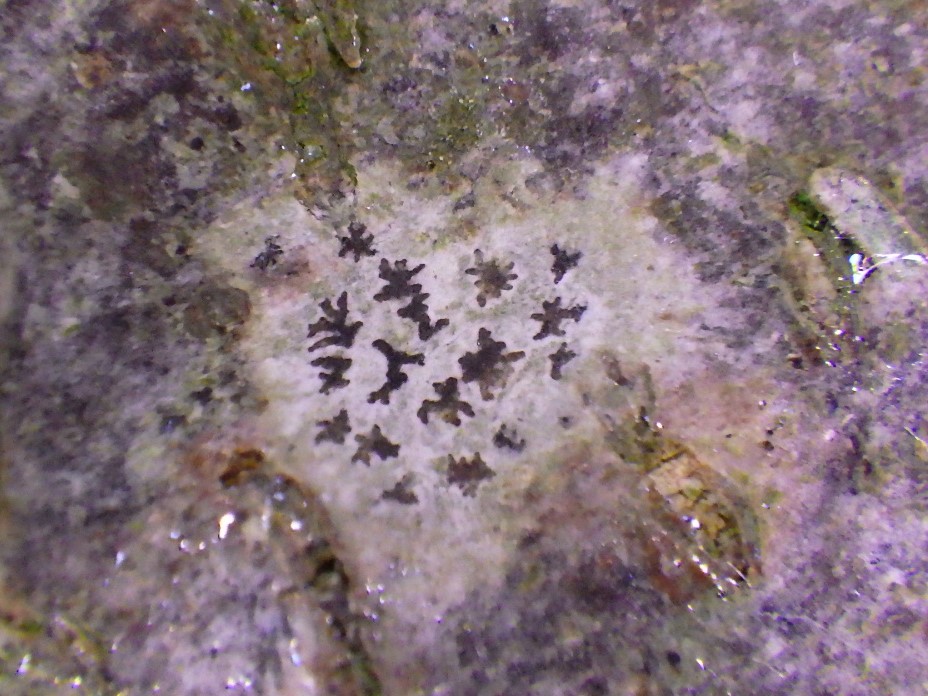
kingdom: Fungi
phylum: Ascomycota
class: Arthoniomycetes
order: Arthoniales
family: Arthoniaceae
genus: Arthonia
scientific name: Arthonia radiata
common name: stjerne-pletlav
